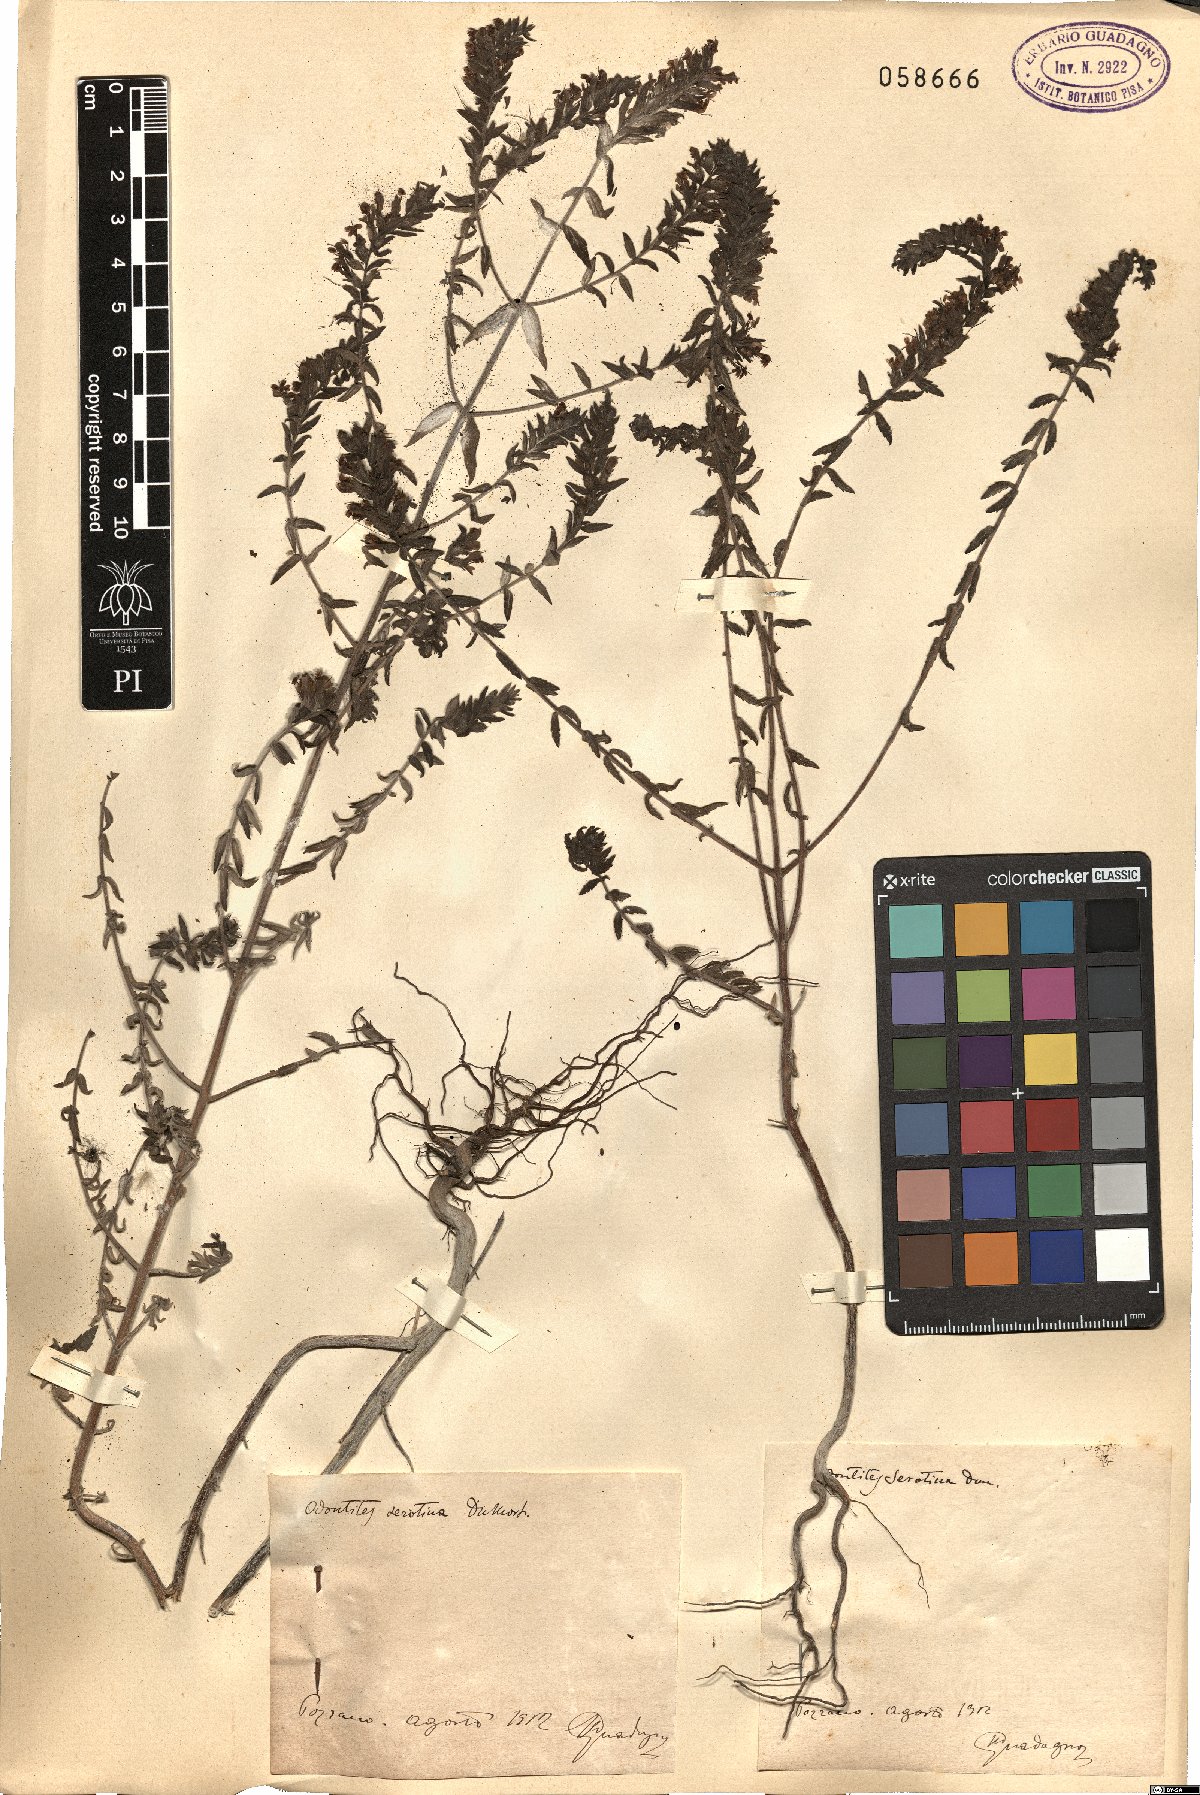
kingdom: Plantae
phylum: Tracheophyta
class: Magnoliopsida
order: Lamiales
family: Orobanchaceae
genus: Odontites
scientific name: Odontites vulgaris
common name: Broomrape
